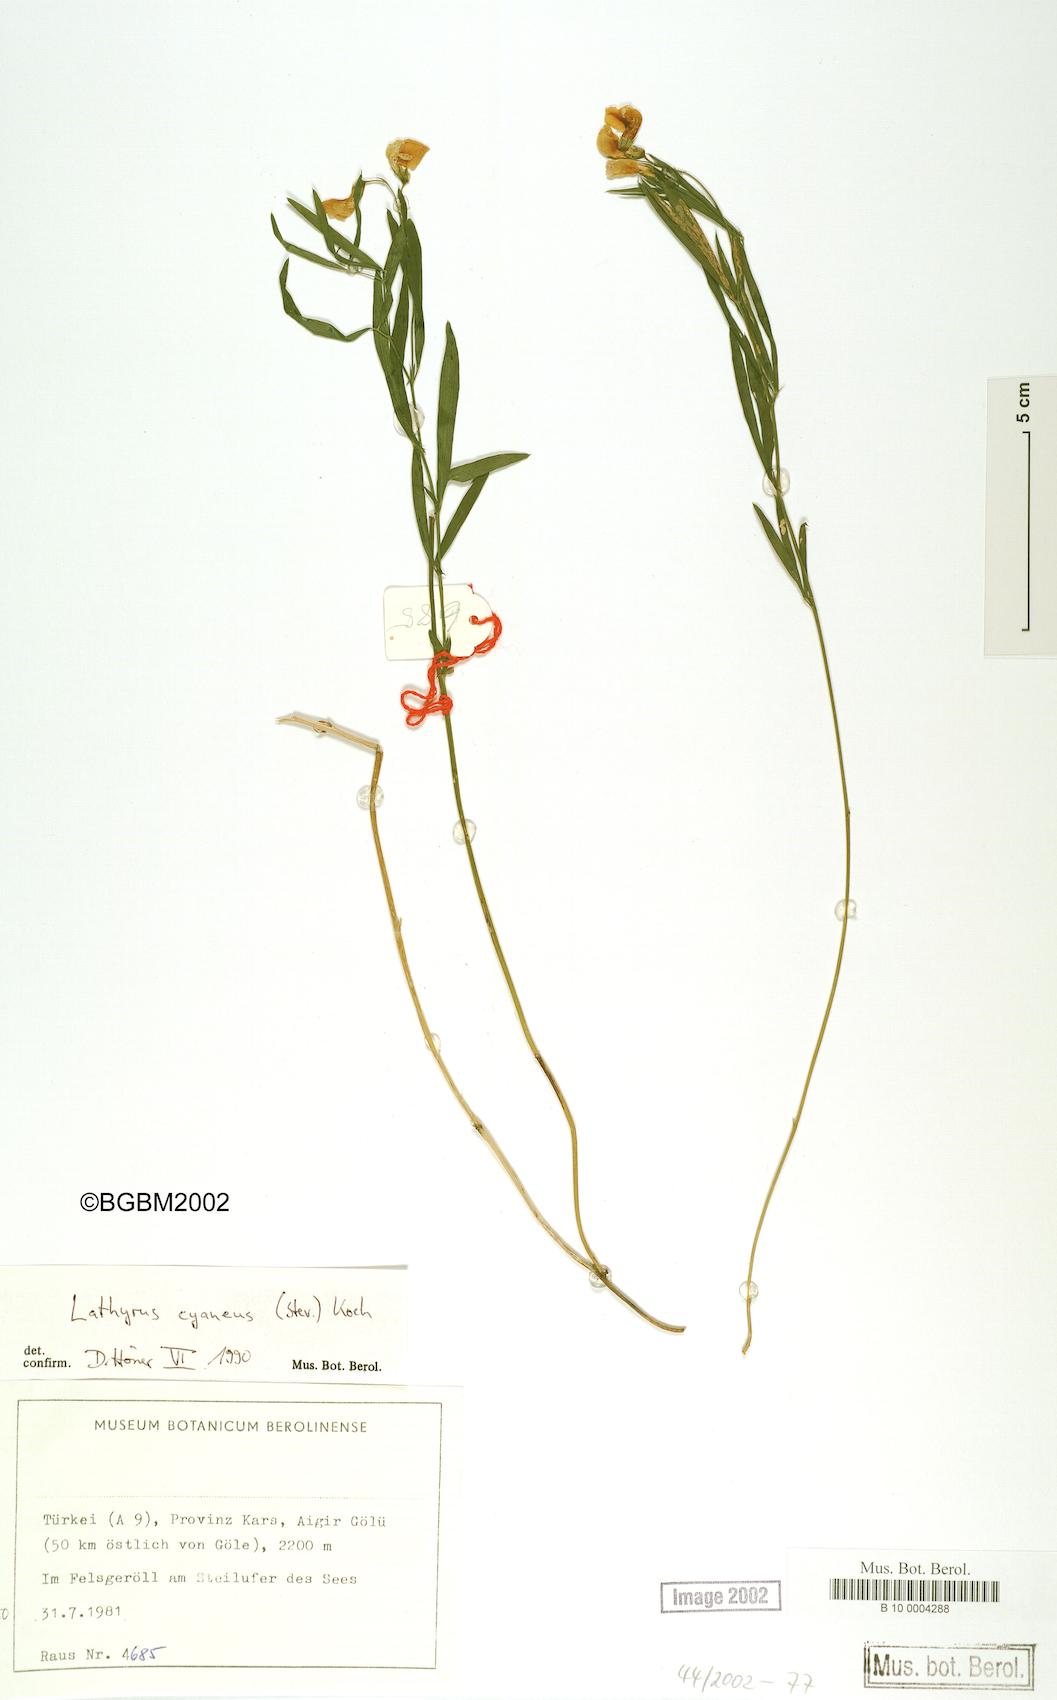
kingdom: Plantae
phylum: Tracheophyta
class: Magnoliopsida
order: Fabales
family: Fabaceae
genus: Lathyrus
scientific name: Lathyrus cyaneus
